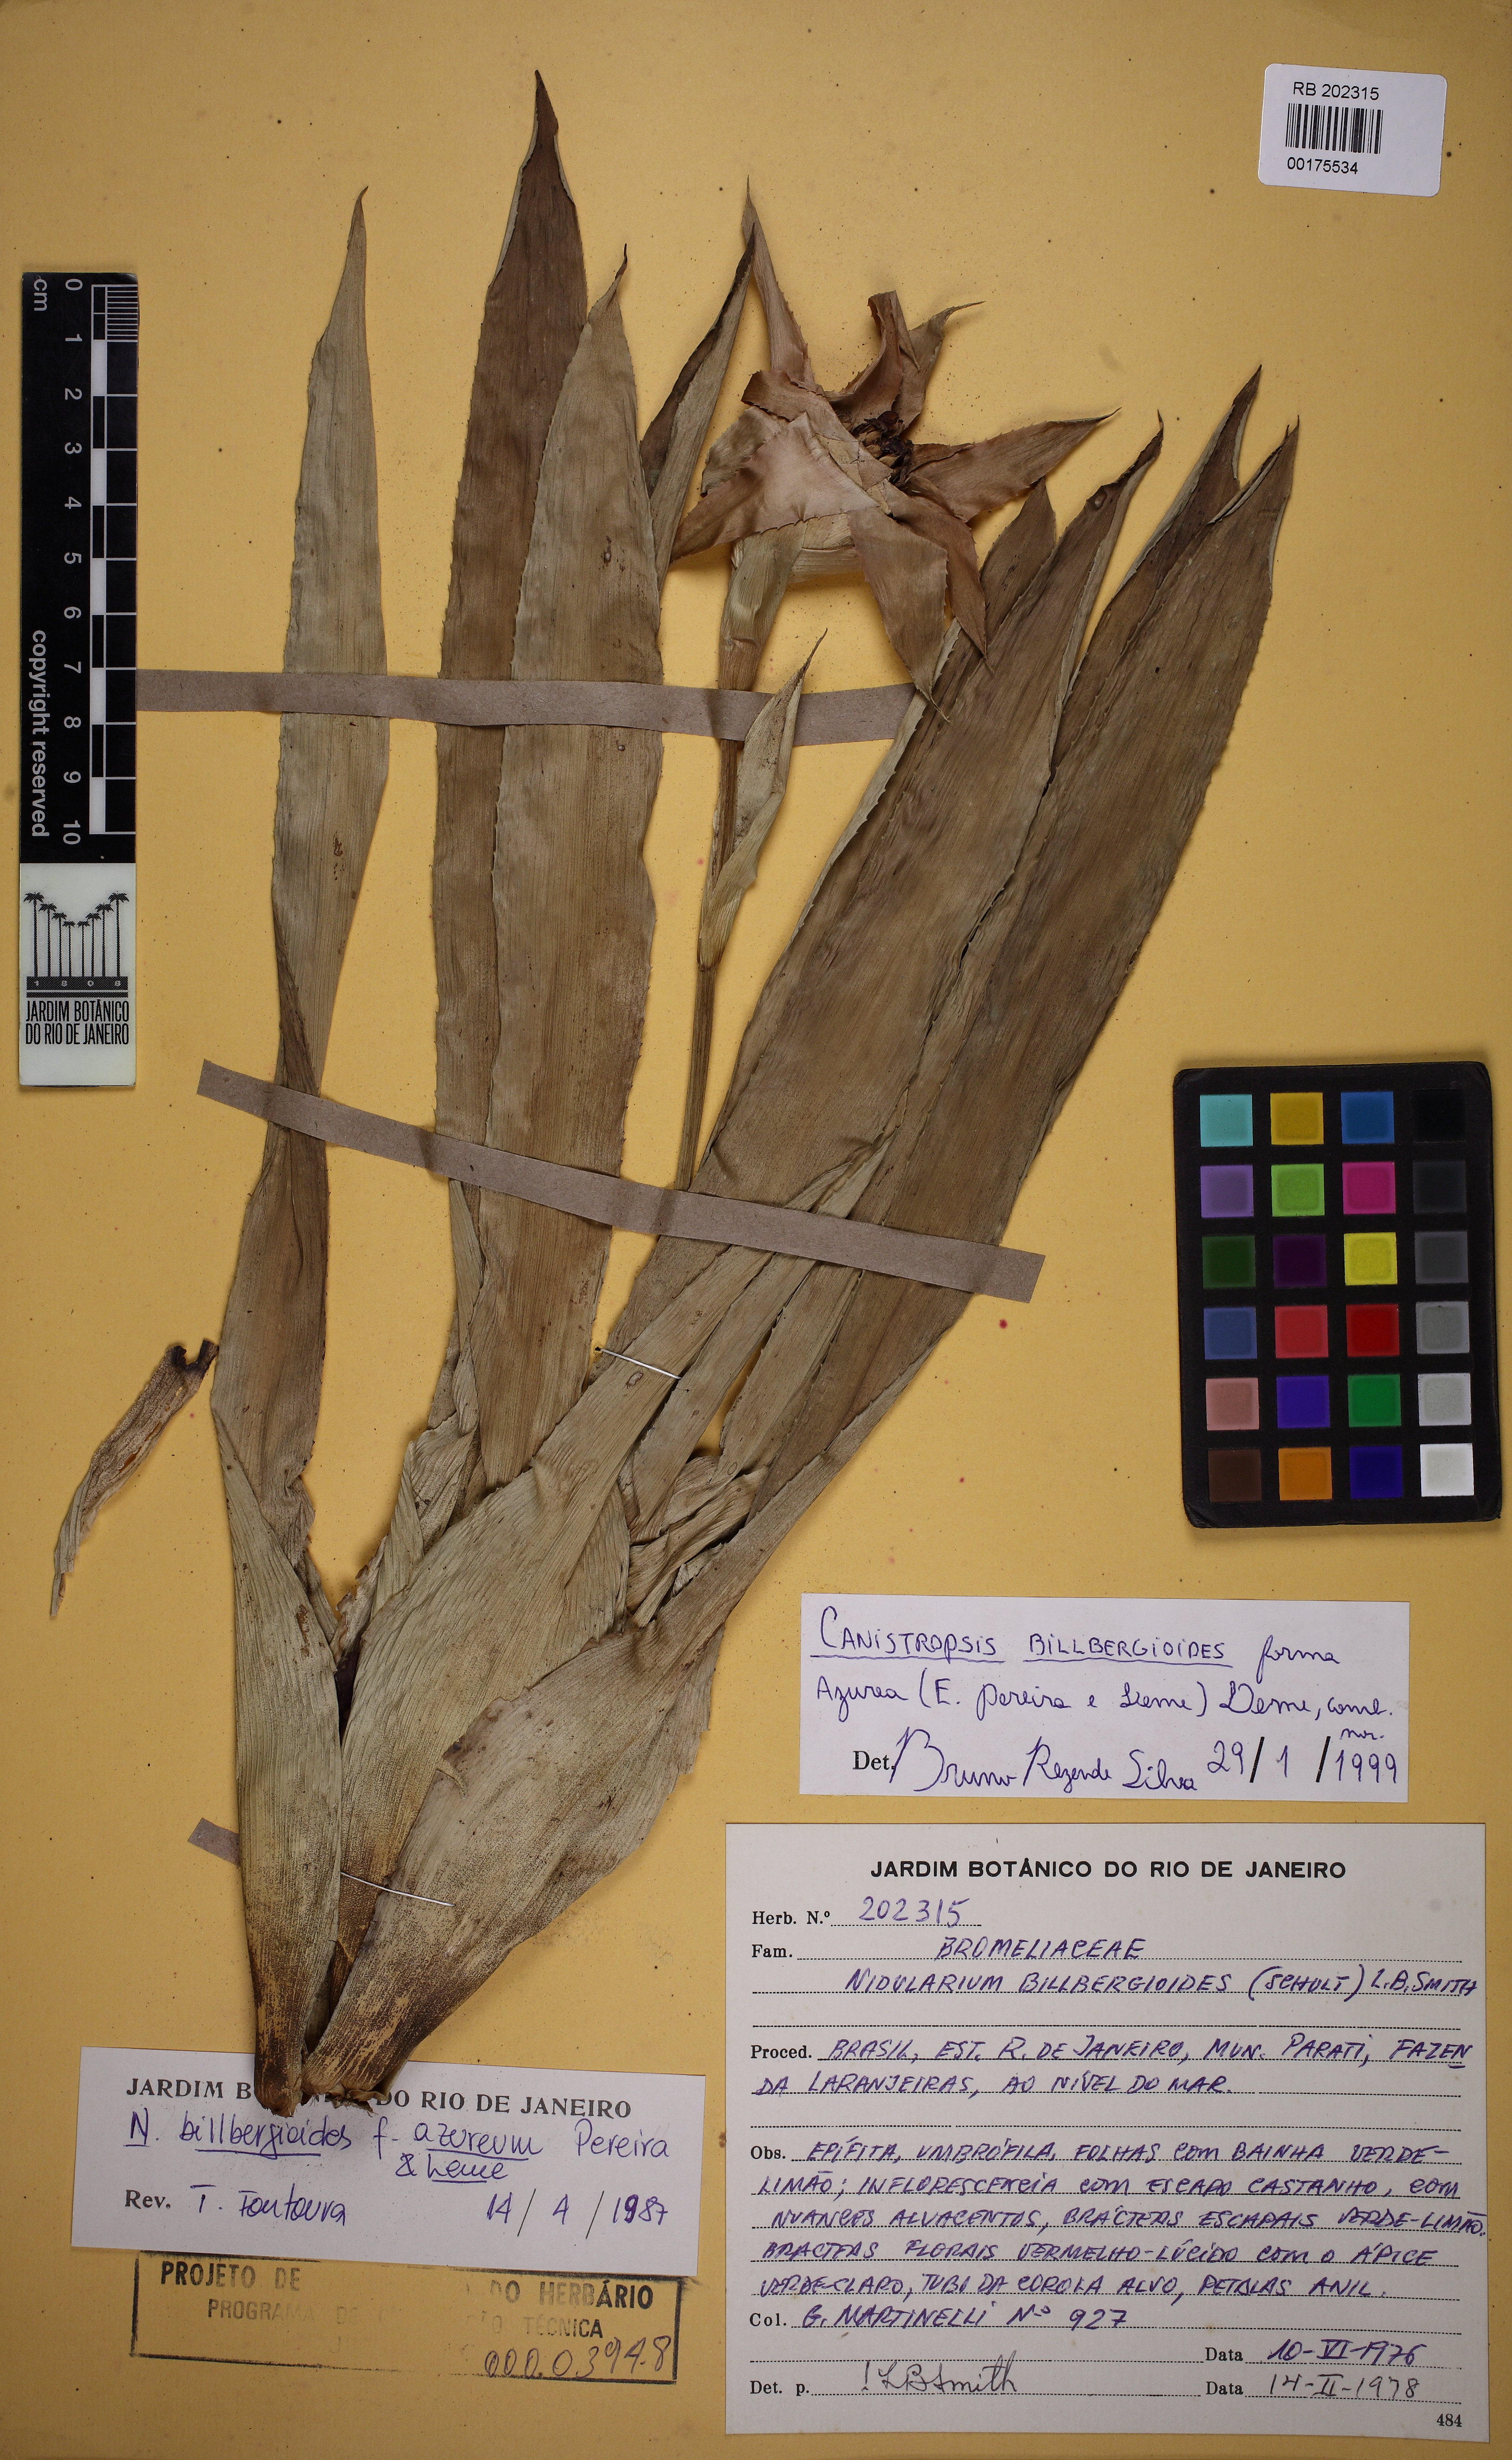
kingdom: Plantae
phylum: Tracheophyta
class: Liliopsida
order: Poales
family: Bromeliaceae
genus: Canistropsis
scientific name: Canistropsis billbergioides
